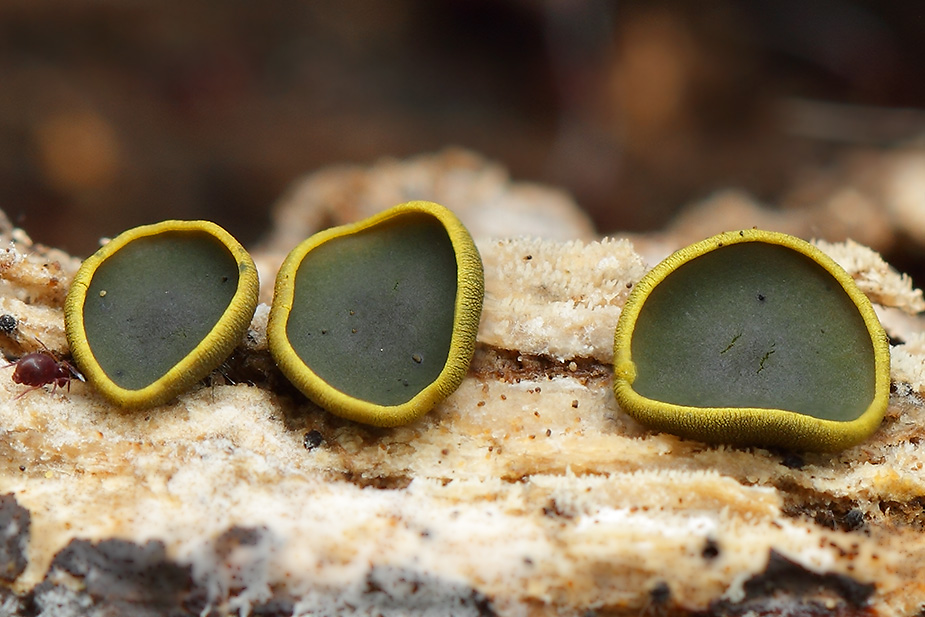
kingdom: Fungi
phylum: Ascomycota
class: Dothideomycetes
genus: Catinella
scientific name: Catinella olivacea
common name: olivenskive
